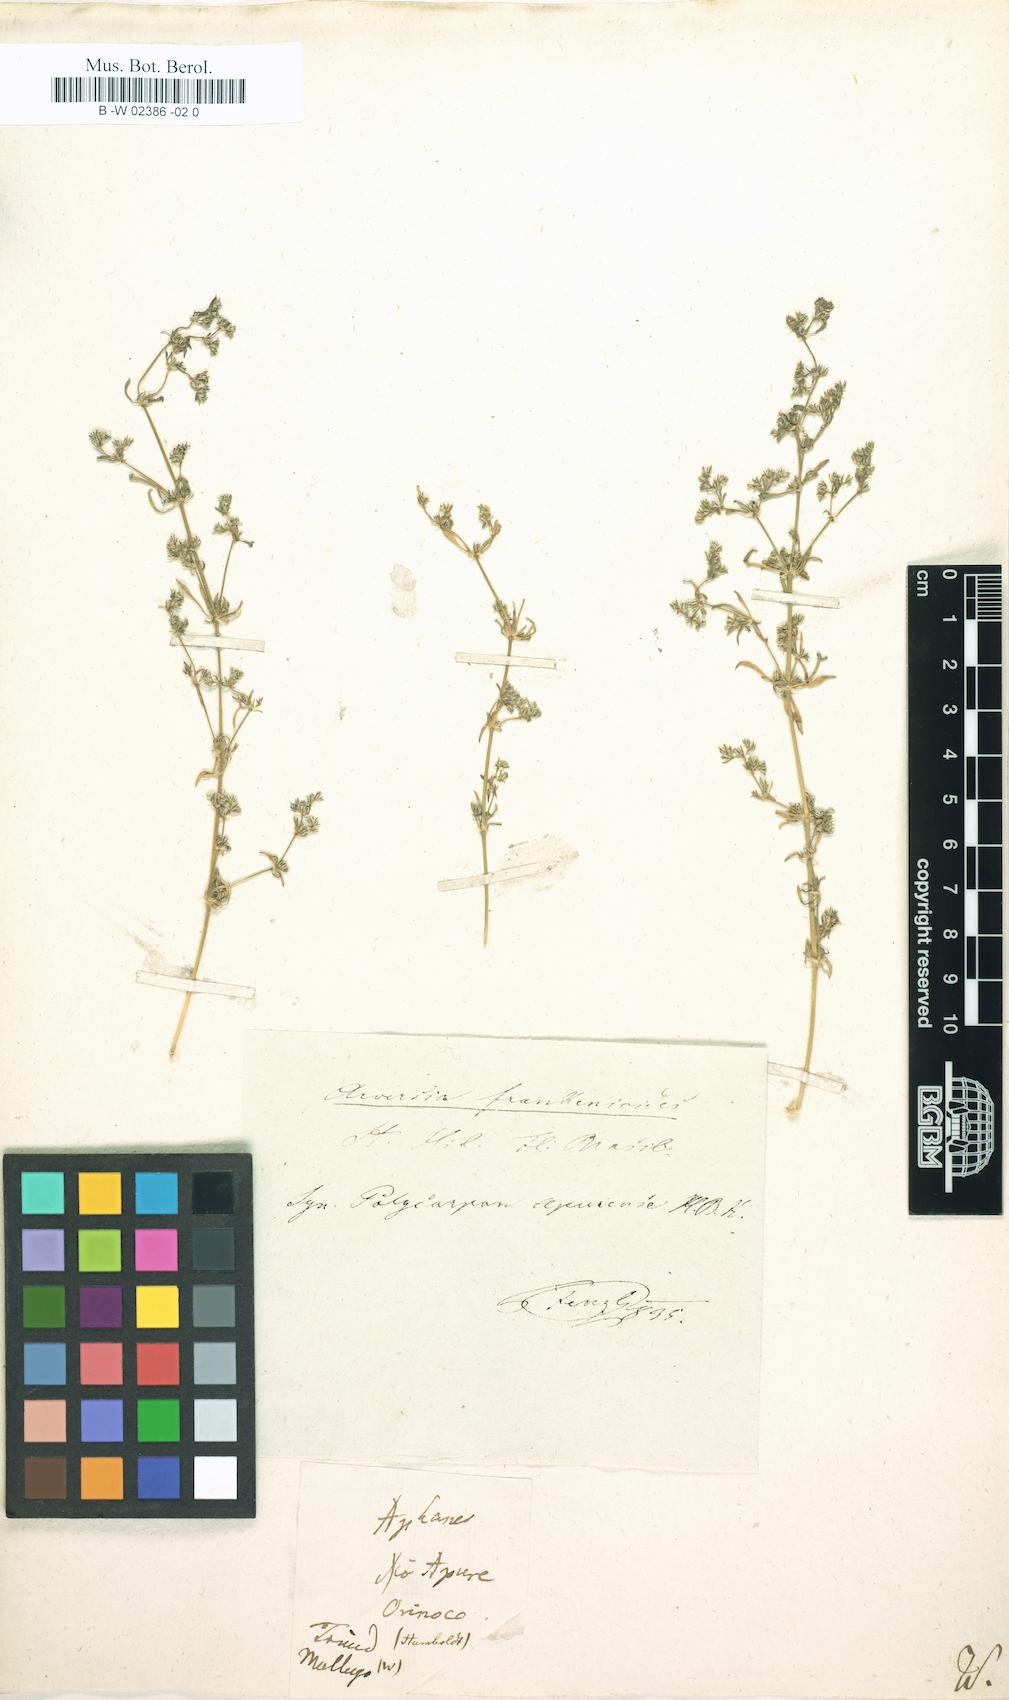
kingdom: Plantae
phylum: Tracheophyta
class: Magnoliopsida
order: Caryophyllales
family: Molluginaceae
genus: Mollugo
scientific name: Mollugo verticillata
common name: Green carpetweed
